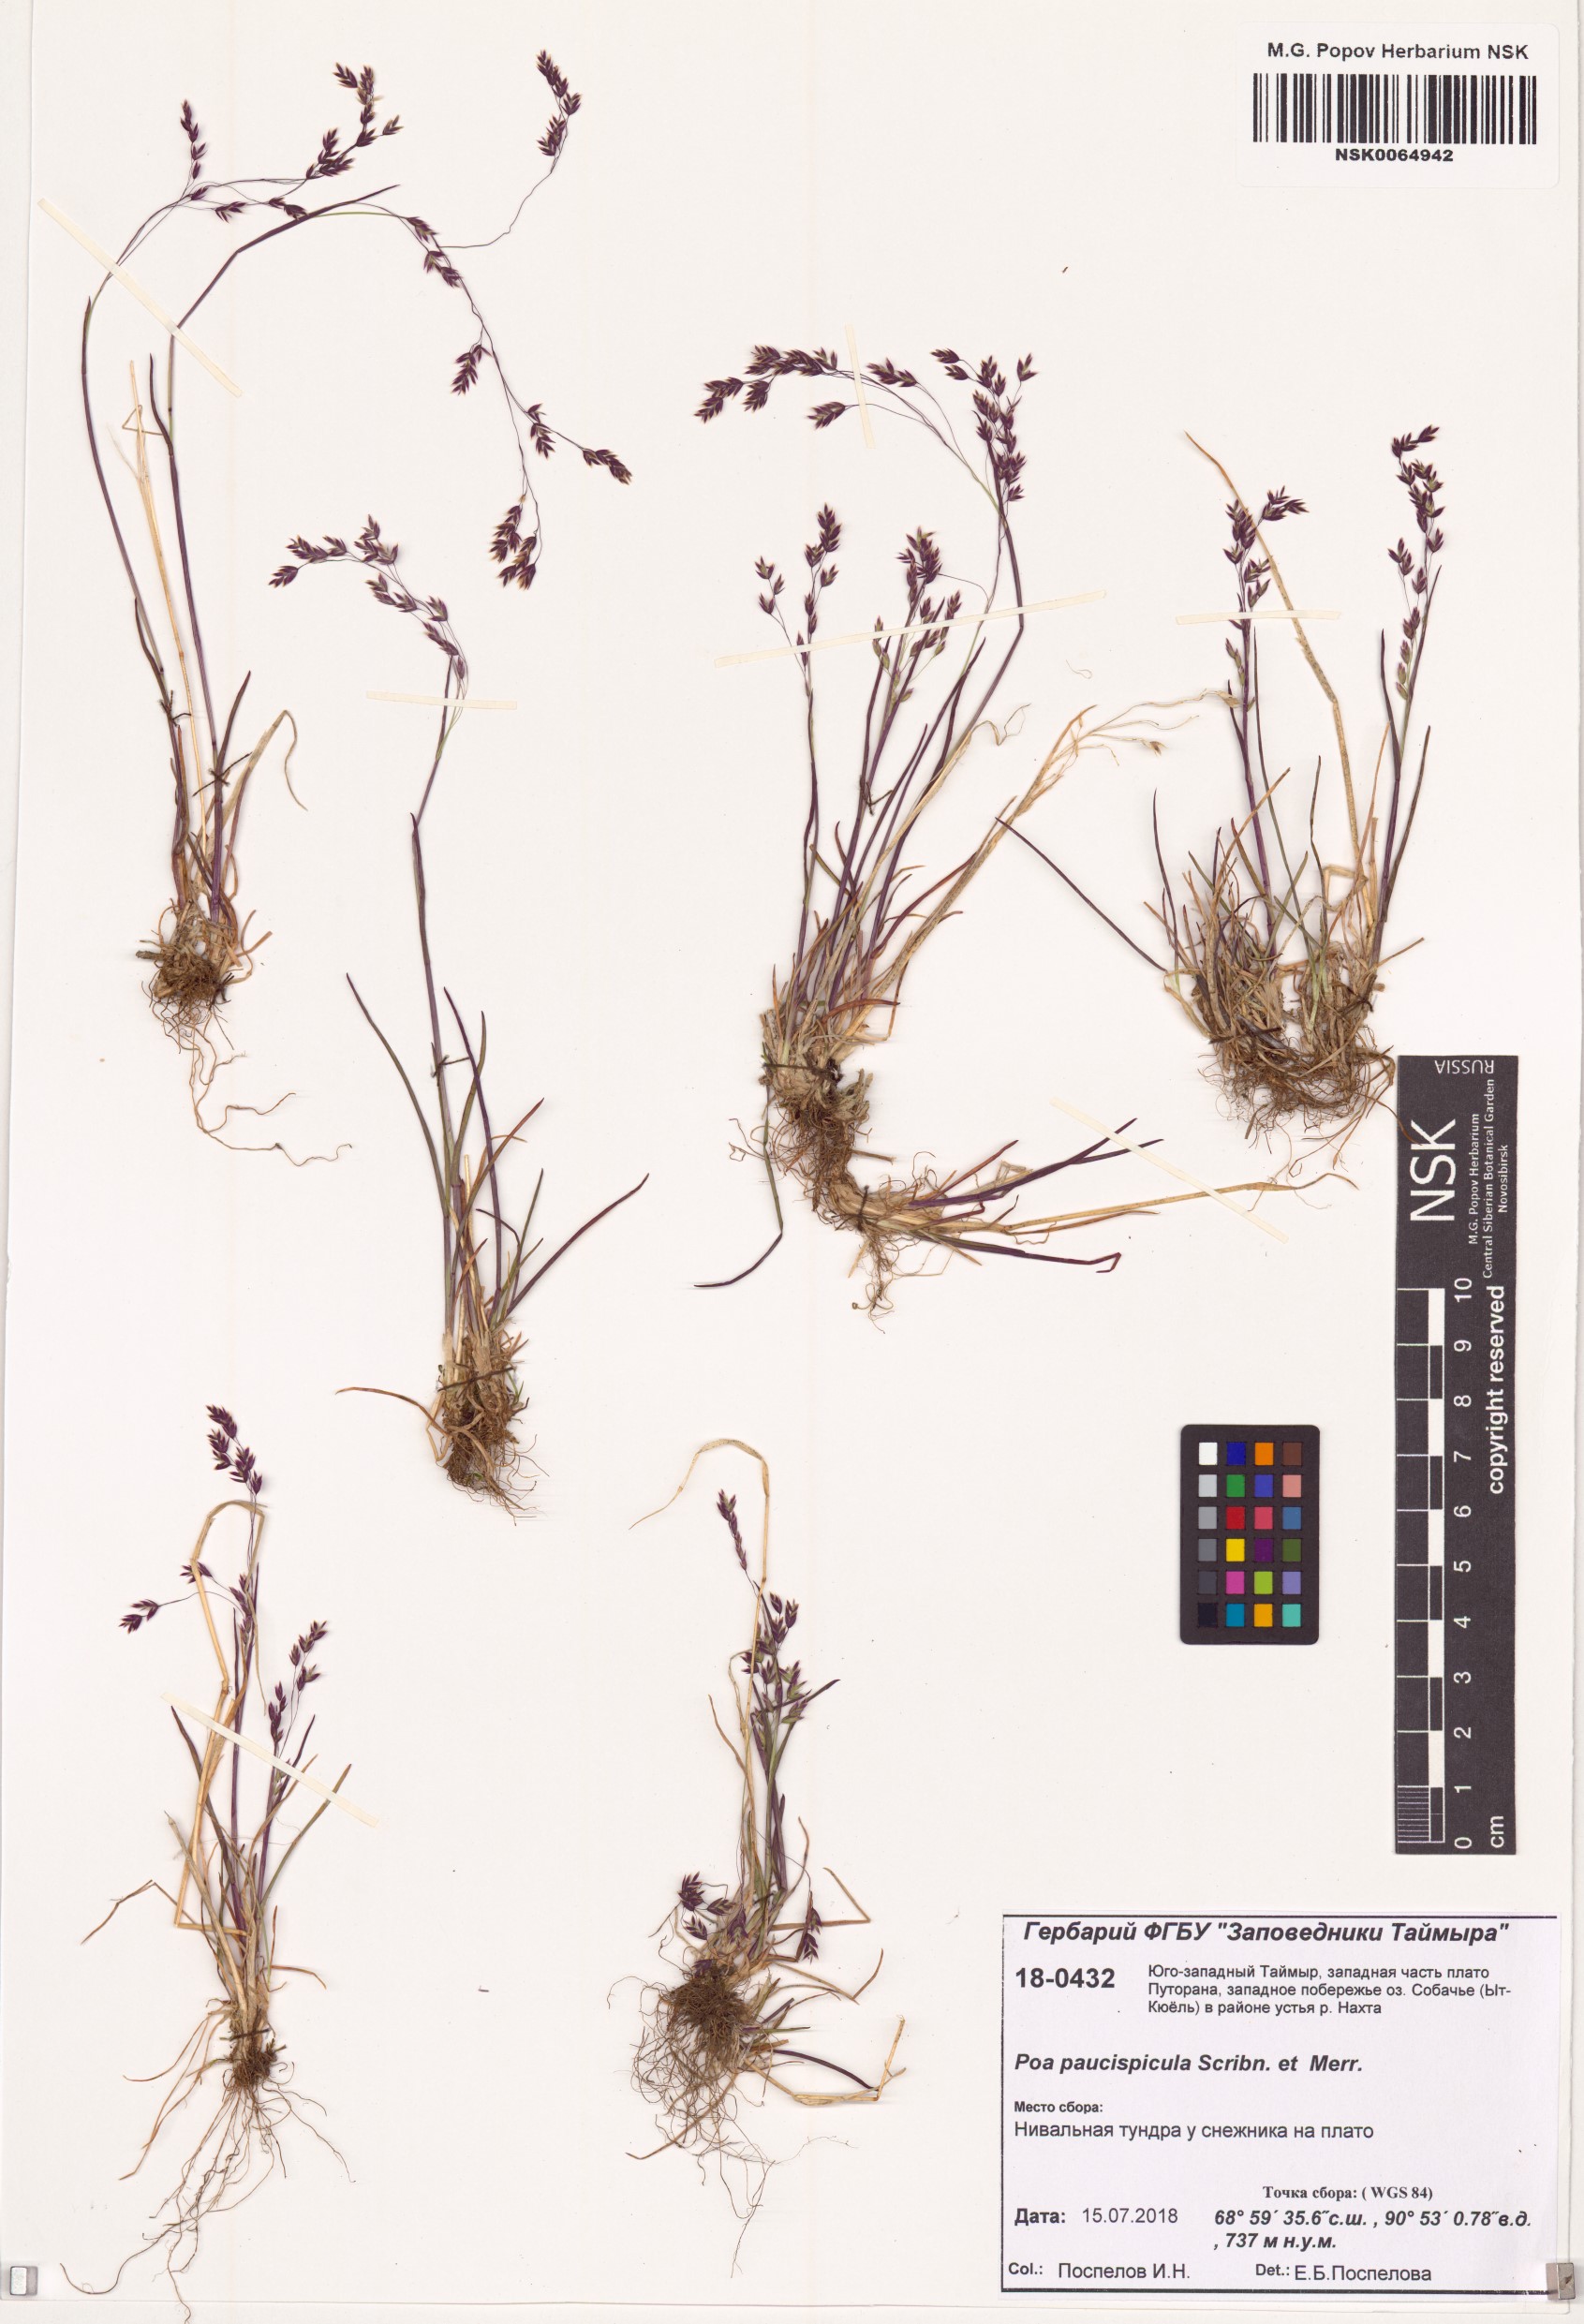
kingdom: Plantae
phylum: Tracheophyta
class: Liliopsida
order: Poales
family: Poaceae
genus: Poa
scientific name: Poa paucispicula
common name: Alaska bluegrass
